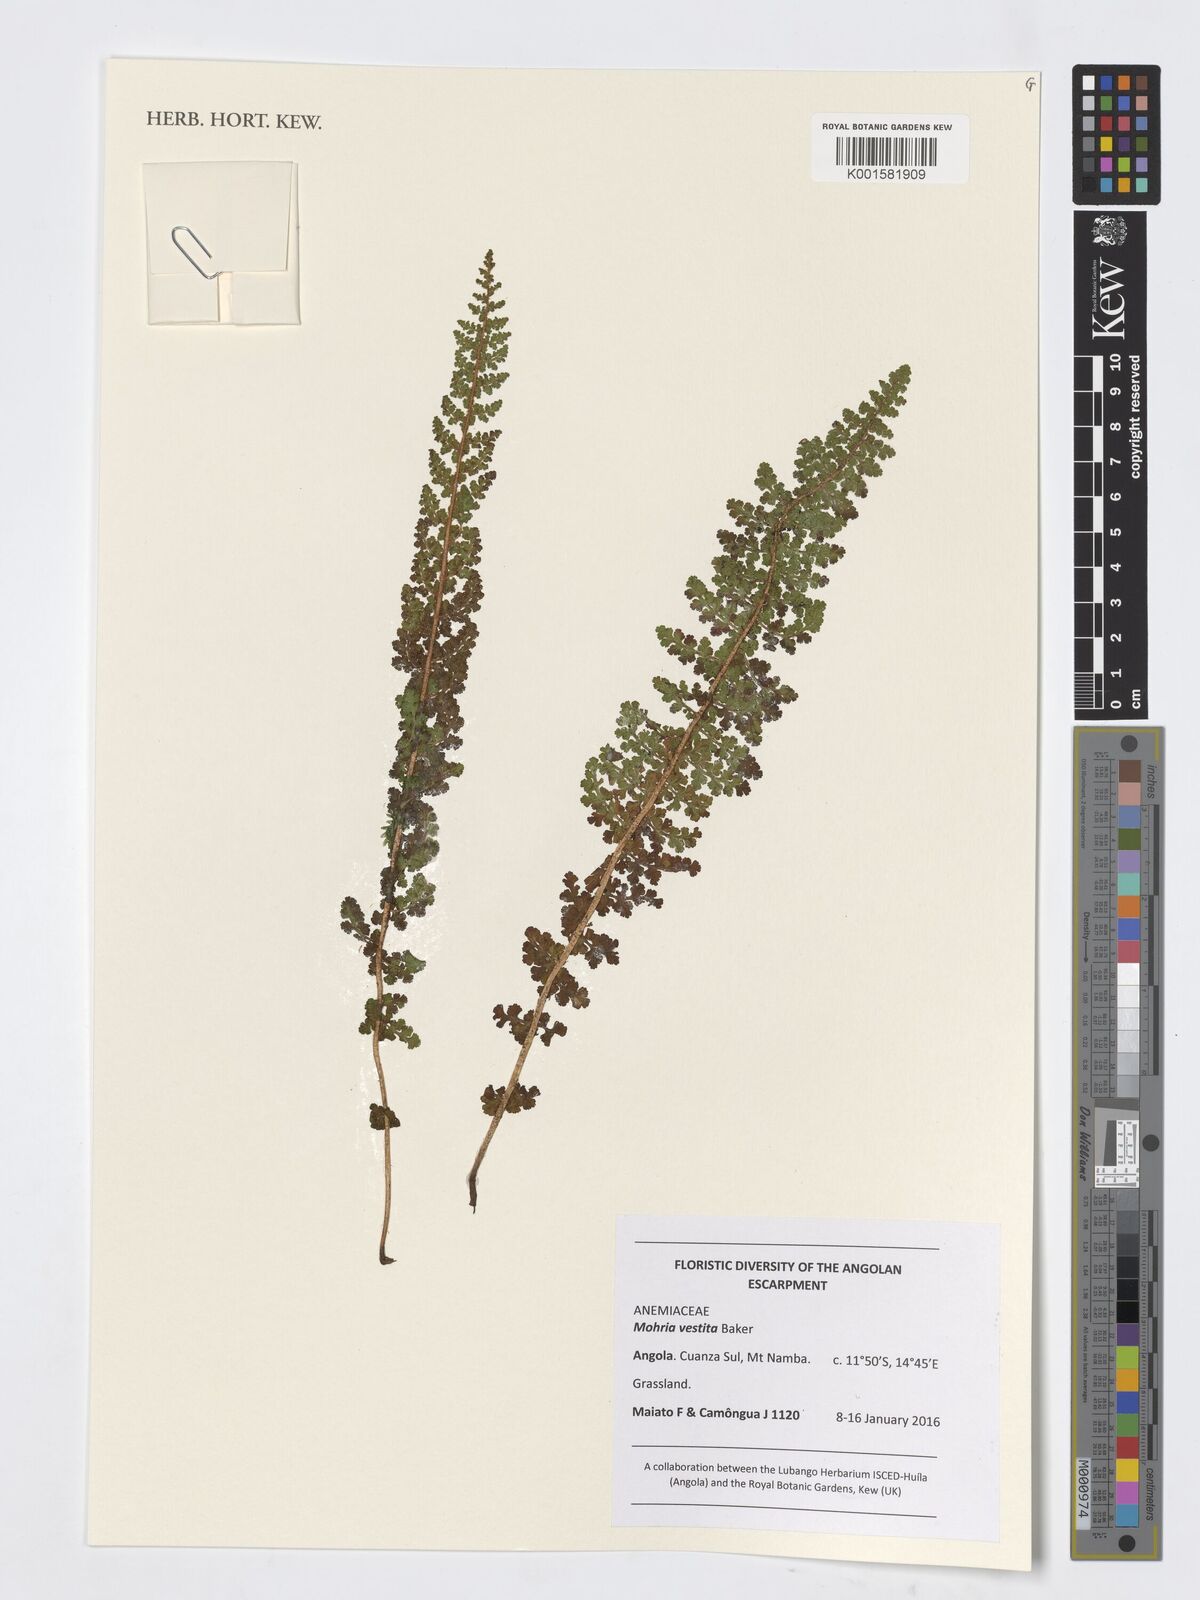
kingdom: Plantae
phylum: Tracheophyta
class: Polypodiopsida
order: Schizaeales
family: Anemiaceae
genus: Anemia
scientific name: Anemia vestita
